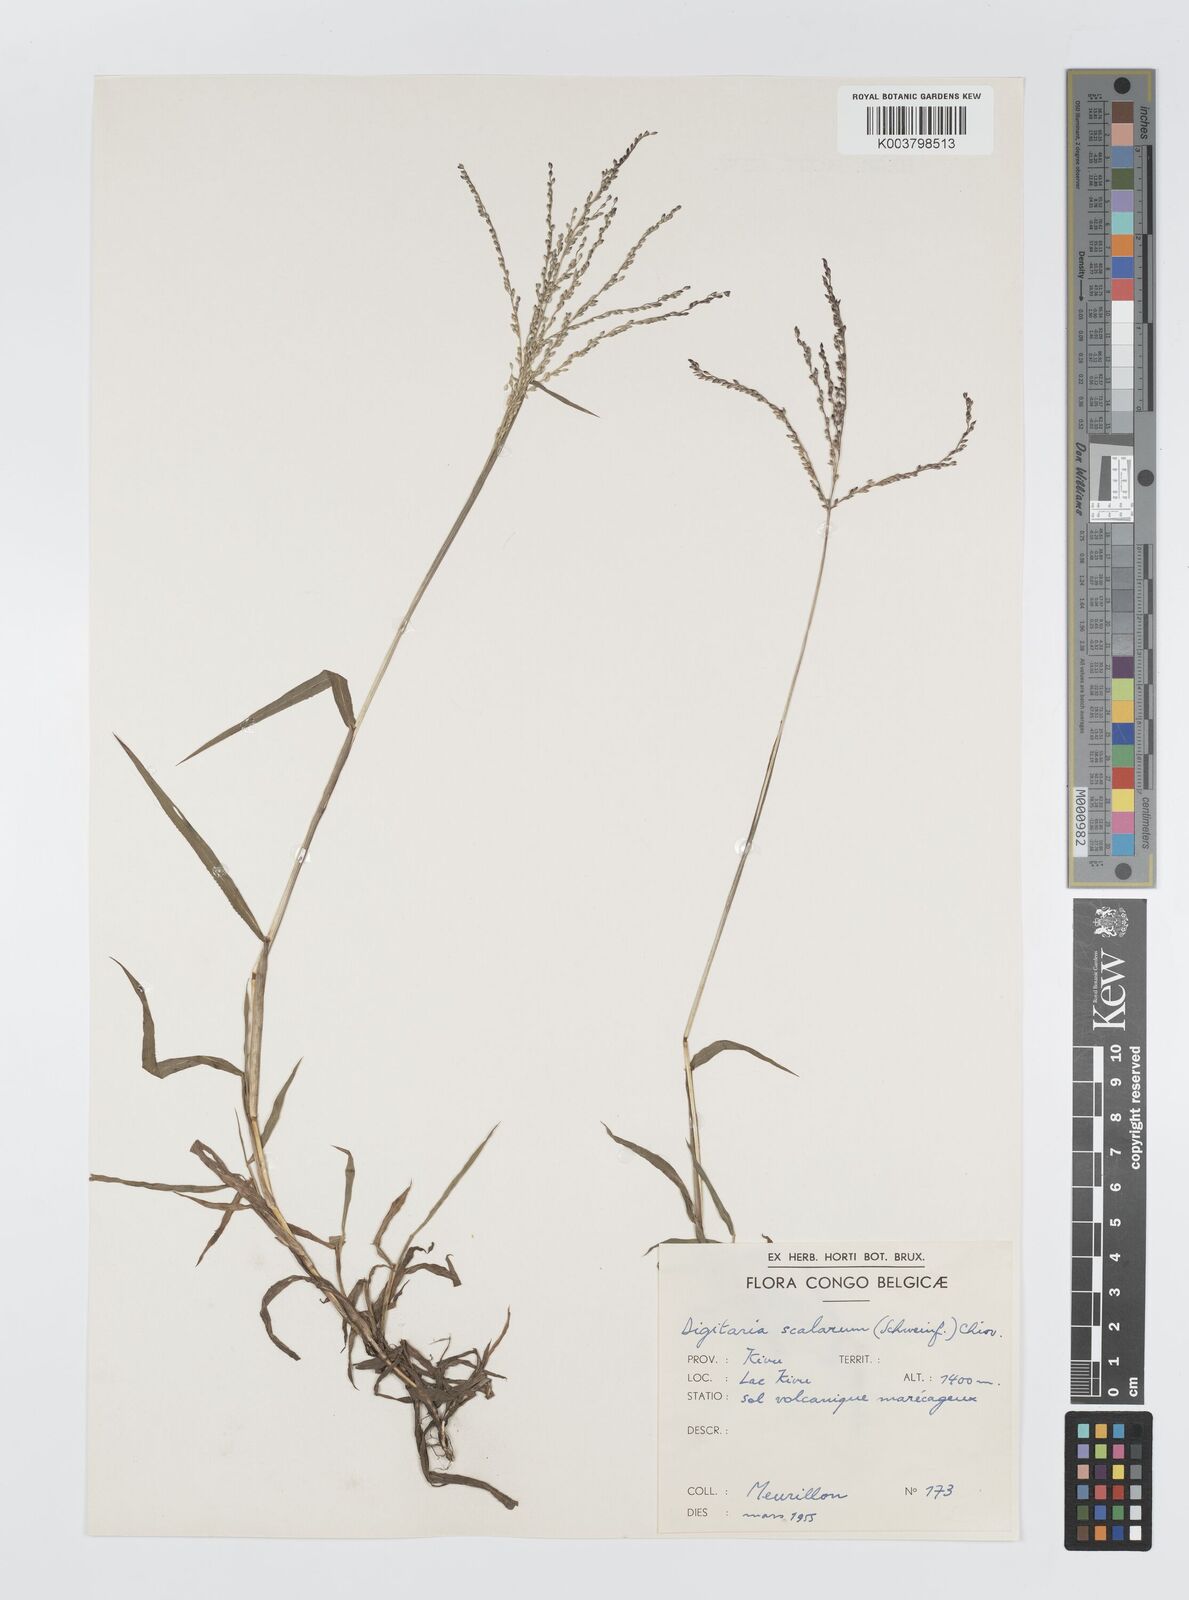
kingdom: Plantae
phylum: Tracheophyta
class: Liliopsida
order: Poales
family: Poaceae
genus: Digitaria
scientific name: Digitaria abyssinica
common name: African couchgrass
